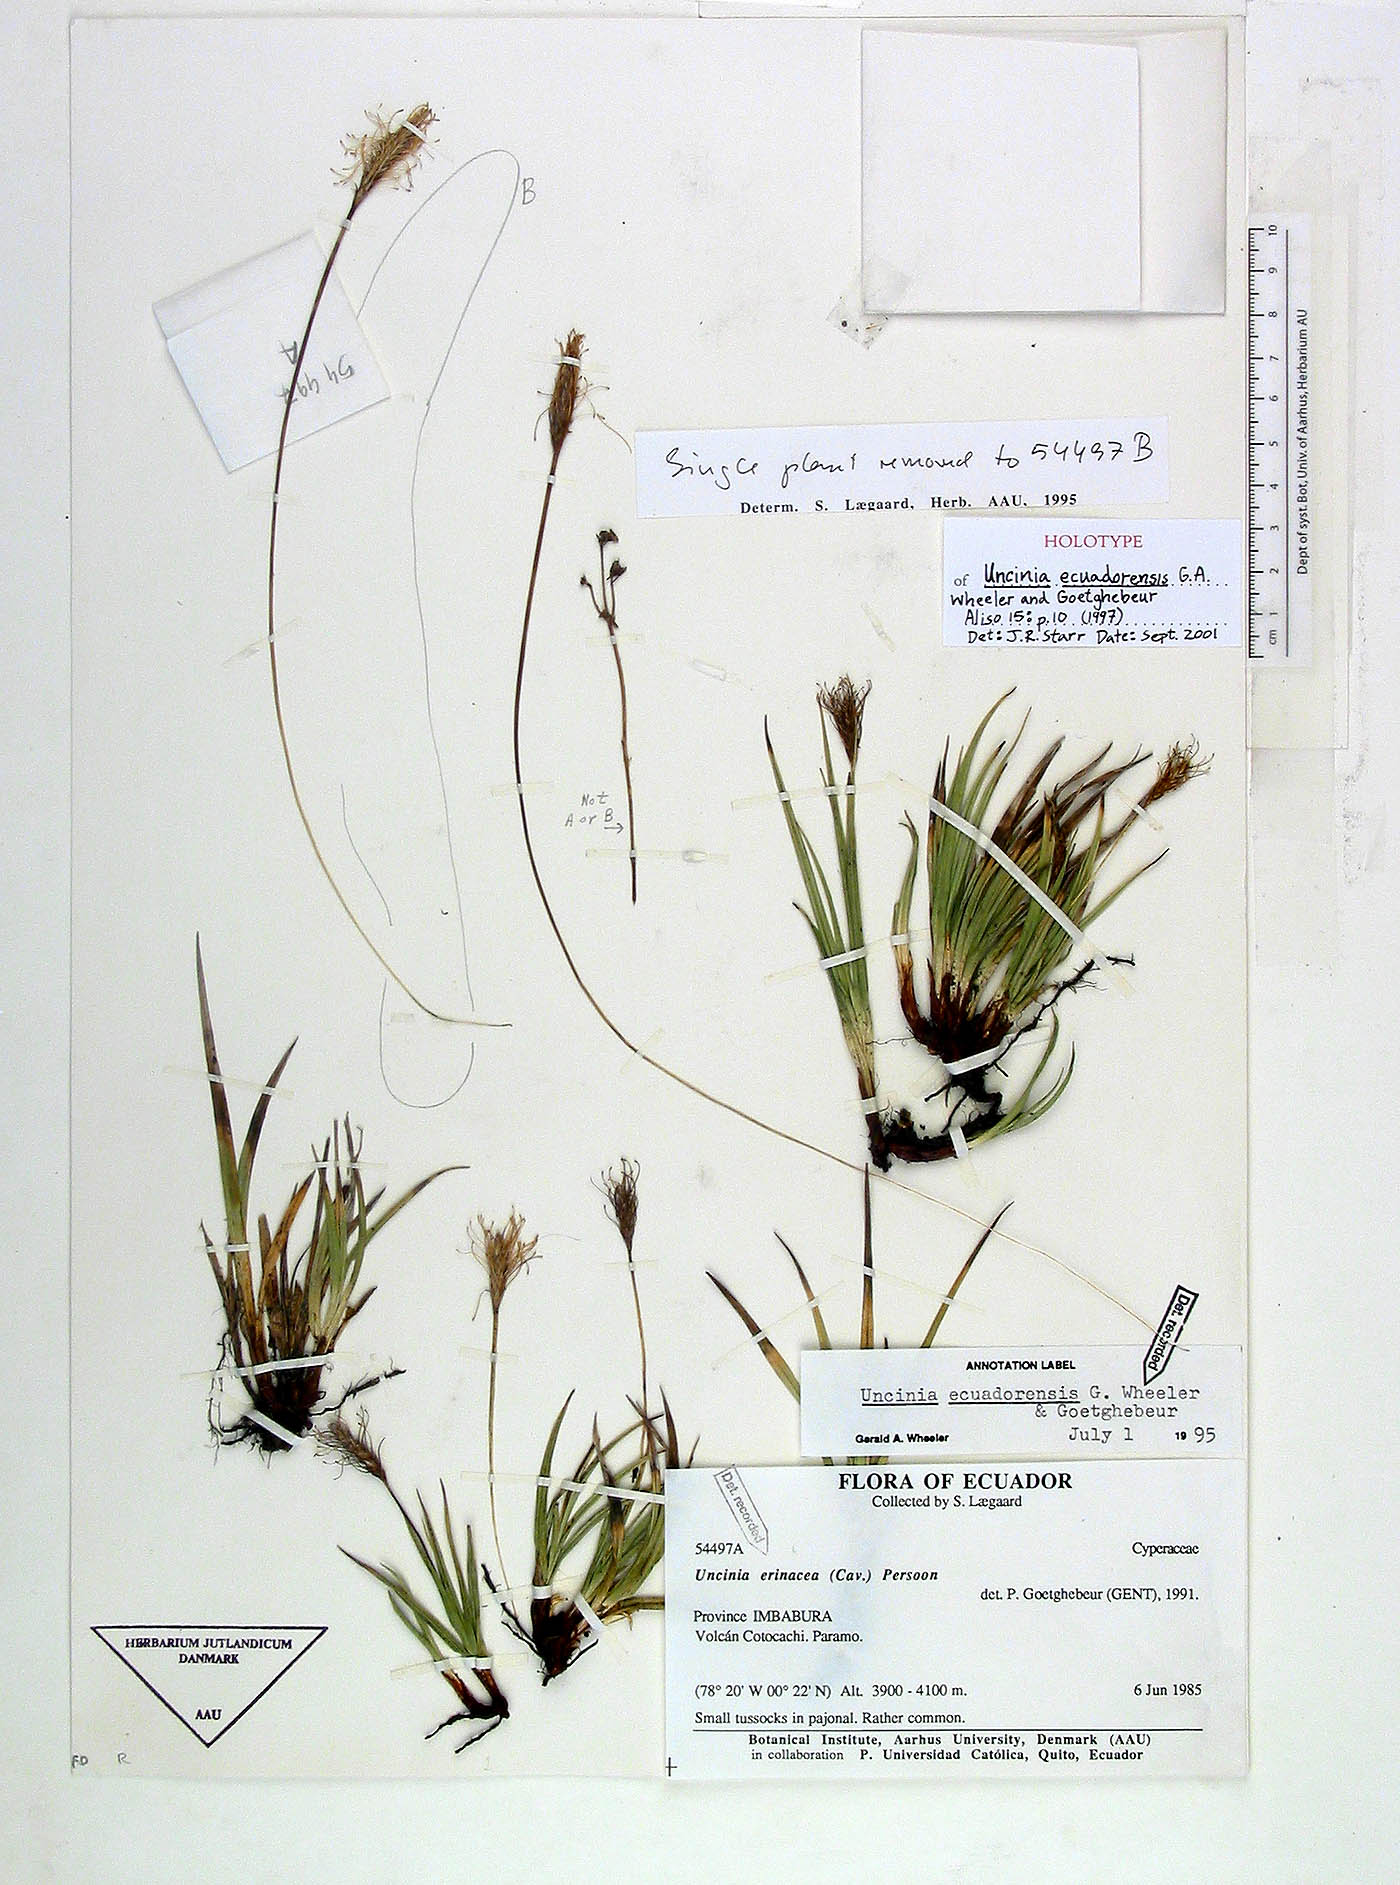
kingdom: Plantae
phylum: Tracheophyta
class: Liliopsida
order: Poales
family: Cyperaceae
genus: Carex
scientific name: Carex ecuadorensis
